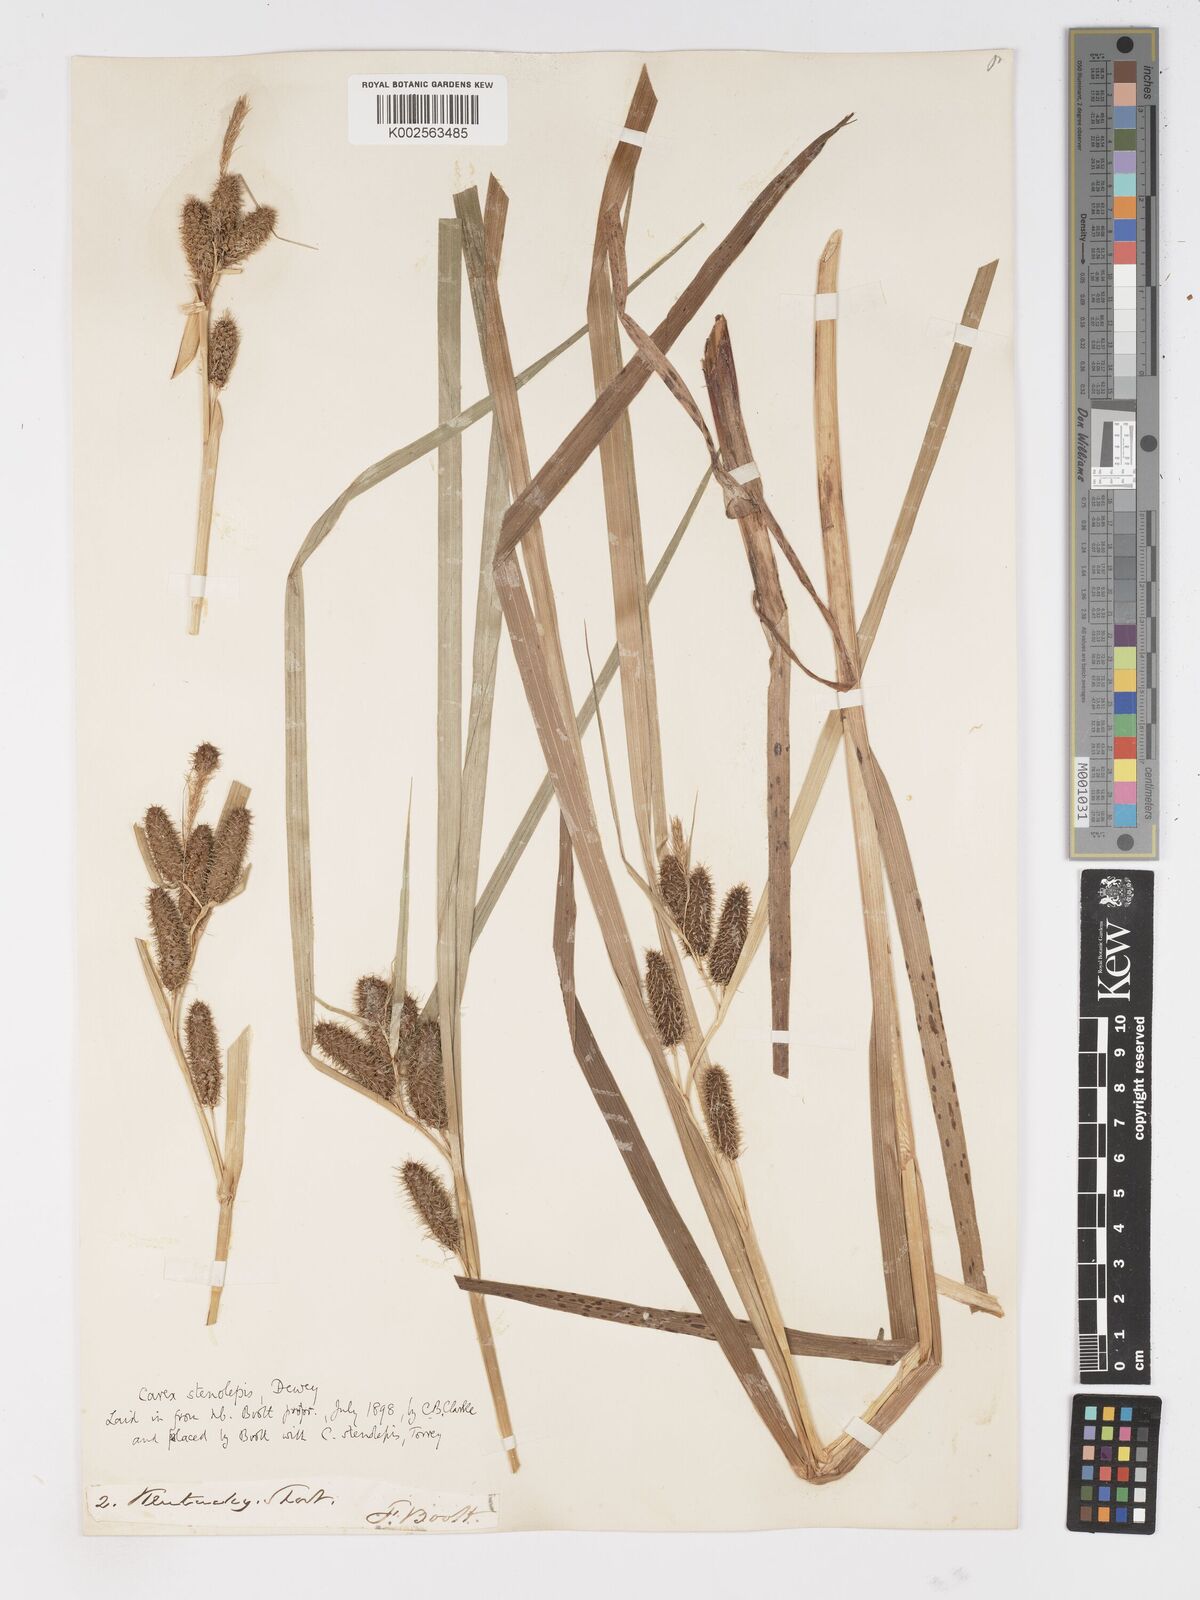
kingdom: Plantae
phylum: Tracheophyta
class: Liliopsida
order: Poales
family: Cyperaceae
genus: Carex
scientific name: Carex frankii
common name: Frank's sedge
